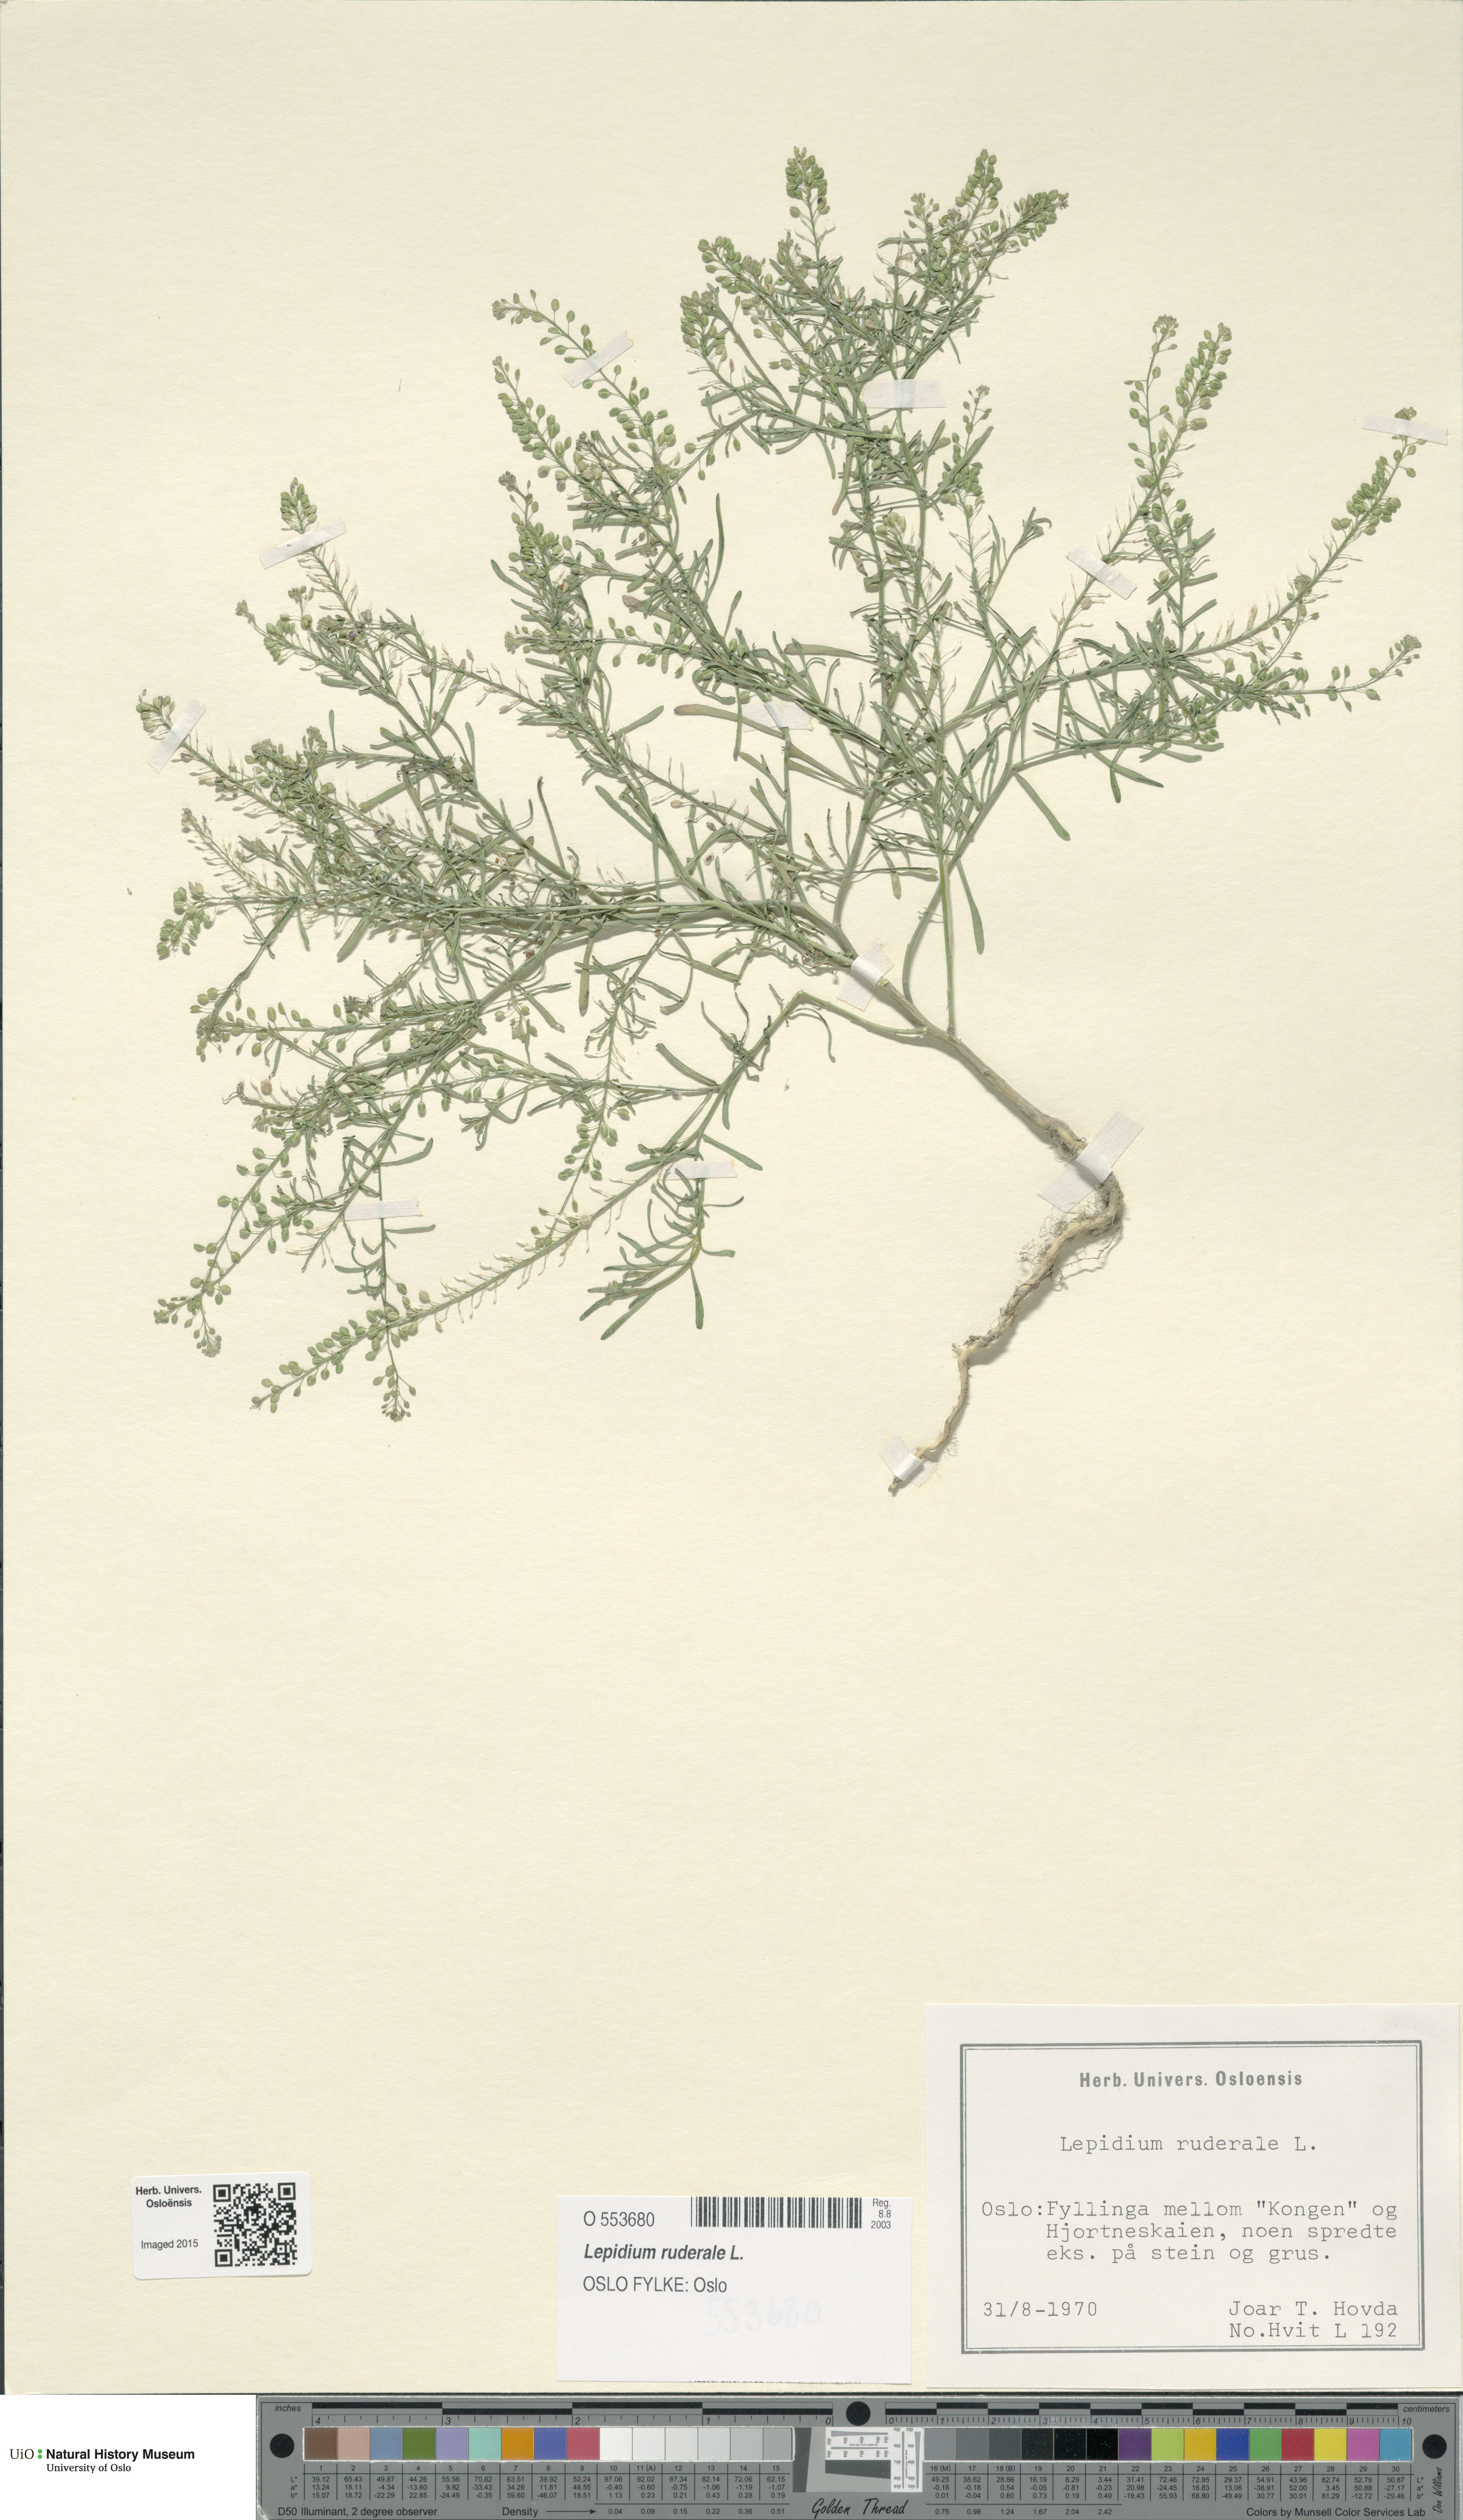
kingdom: Plantae
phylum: Tracheophyta
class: Magnoliopsida
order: Brassicales
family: Brassicaceae
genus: Lepidium
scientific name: Lepidium ruderale
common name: Narrow-leaved pepperwort
